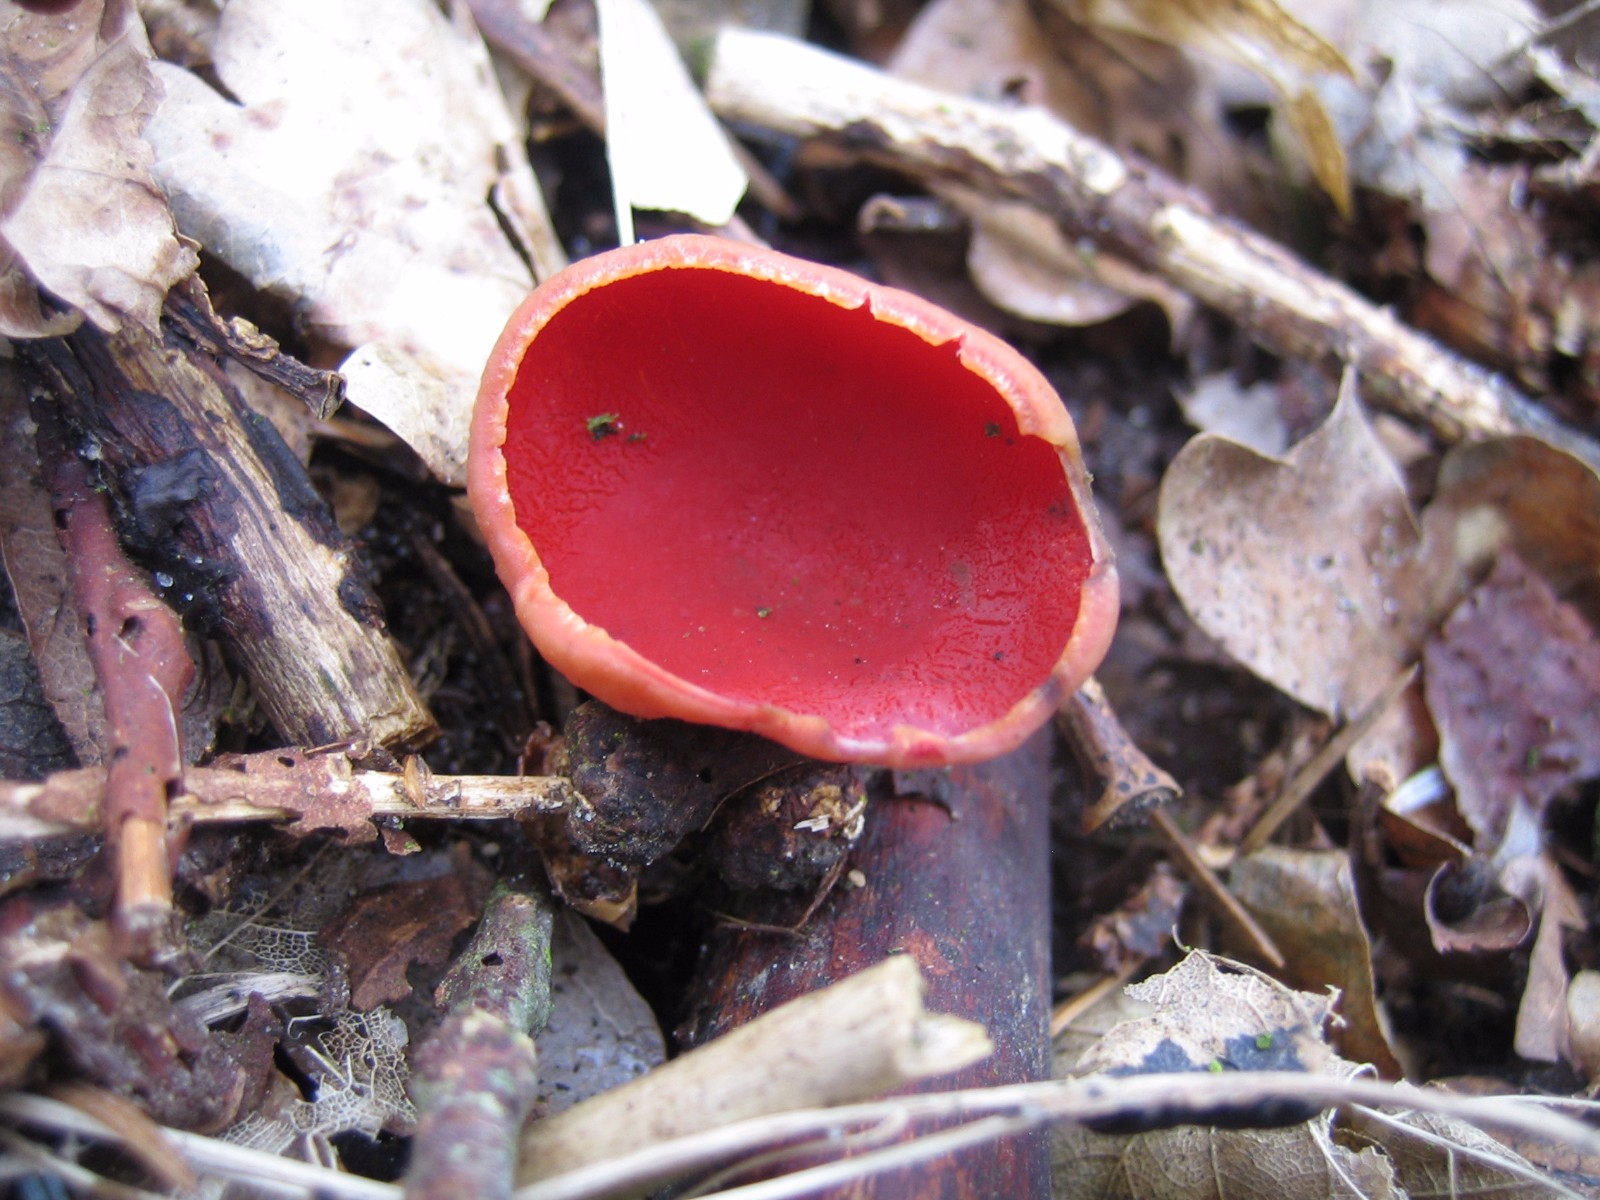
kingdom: Fungi
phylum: Ascomycota
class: Pezizomycetes
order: Pezizales
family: Sarcoscyphaceae
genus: Sarcoscypha
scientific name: Sarcoscypha austriaca
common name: krølhåret pragtbæger
